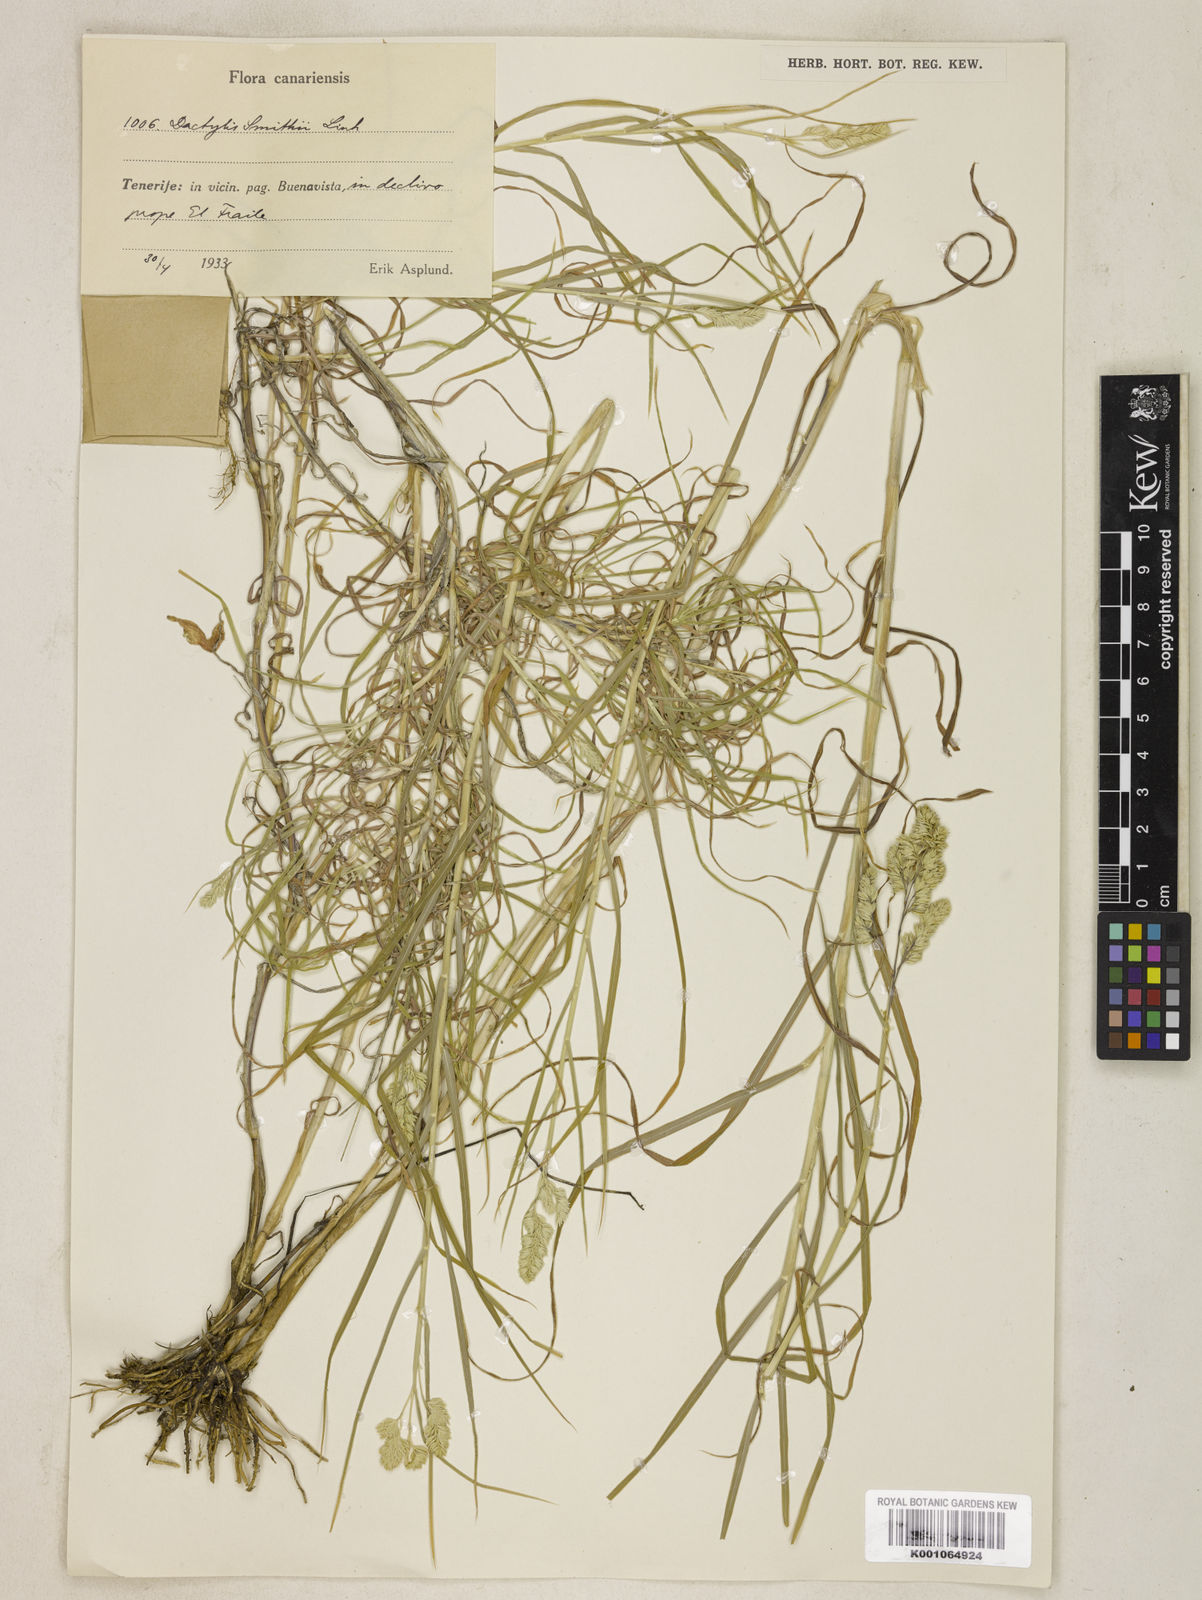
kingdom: Plantae
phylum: Tracheophyta
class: Liliopsida
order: Poales
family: Poaceae
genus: Dactylis
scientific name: Dactylis glomerata
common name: Orchardgrass
